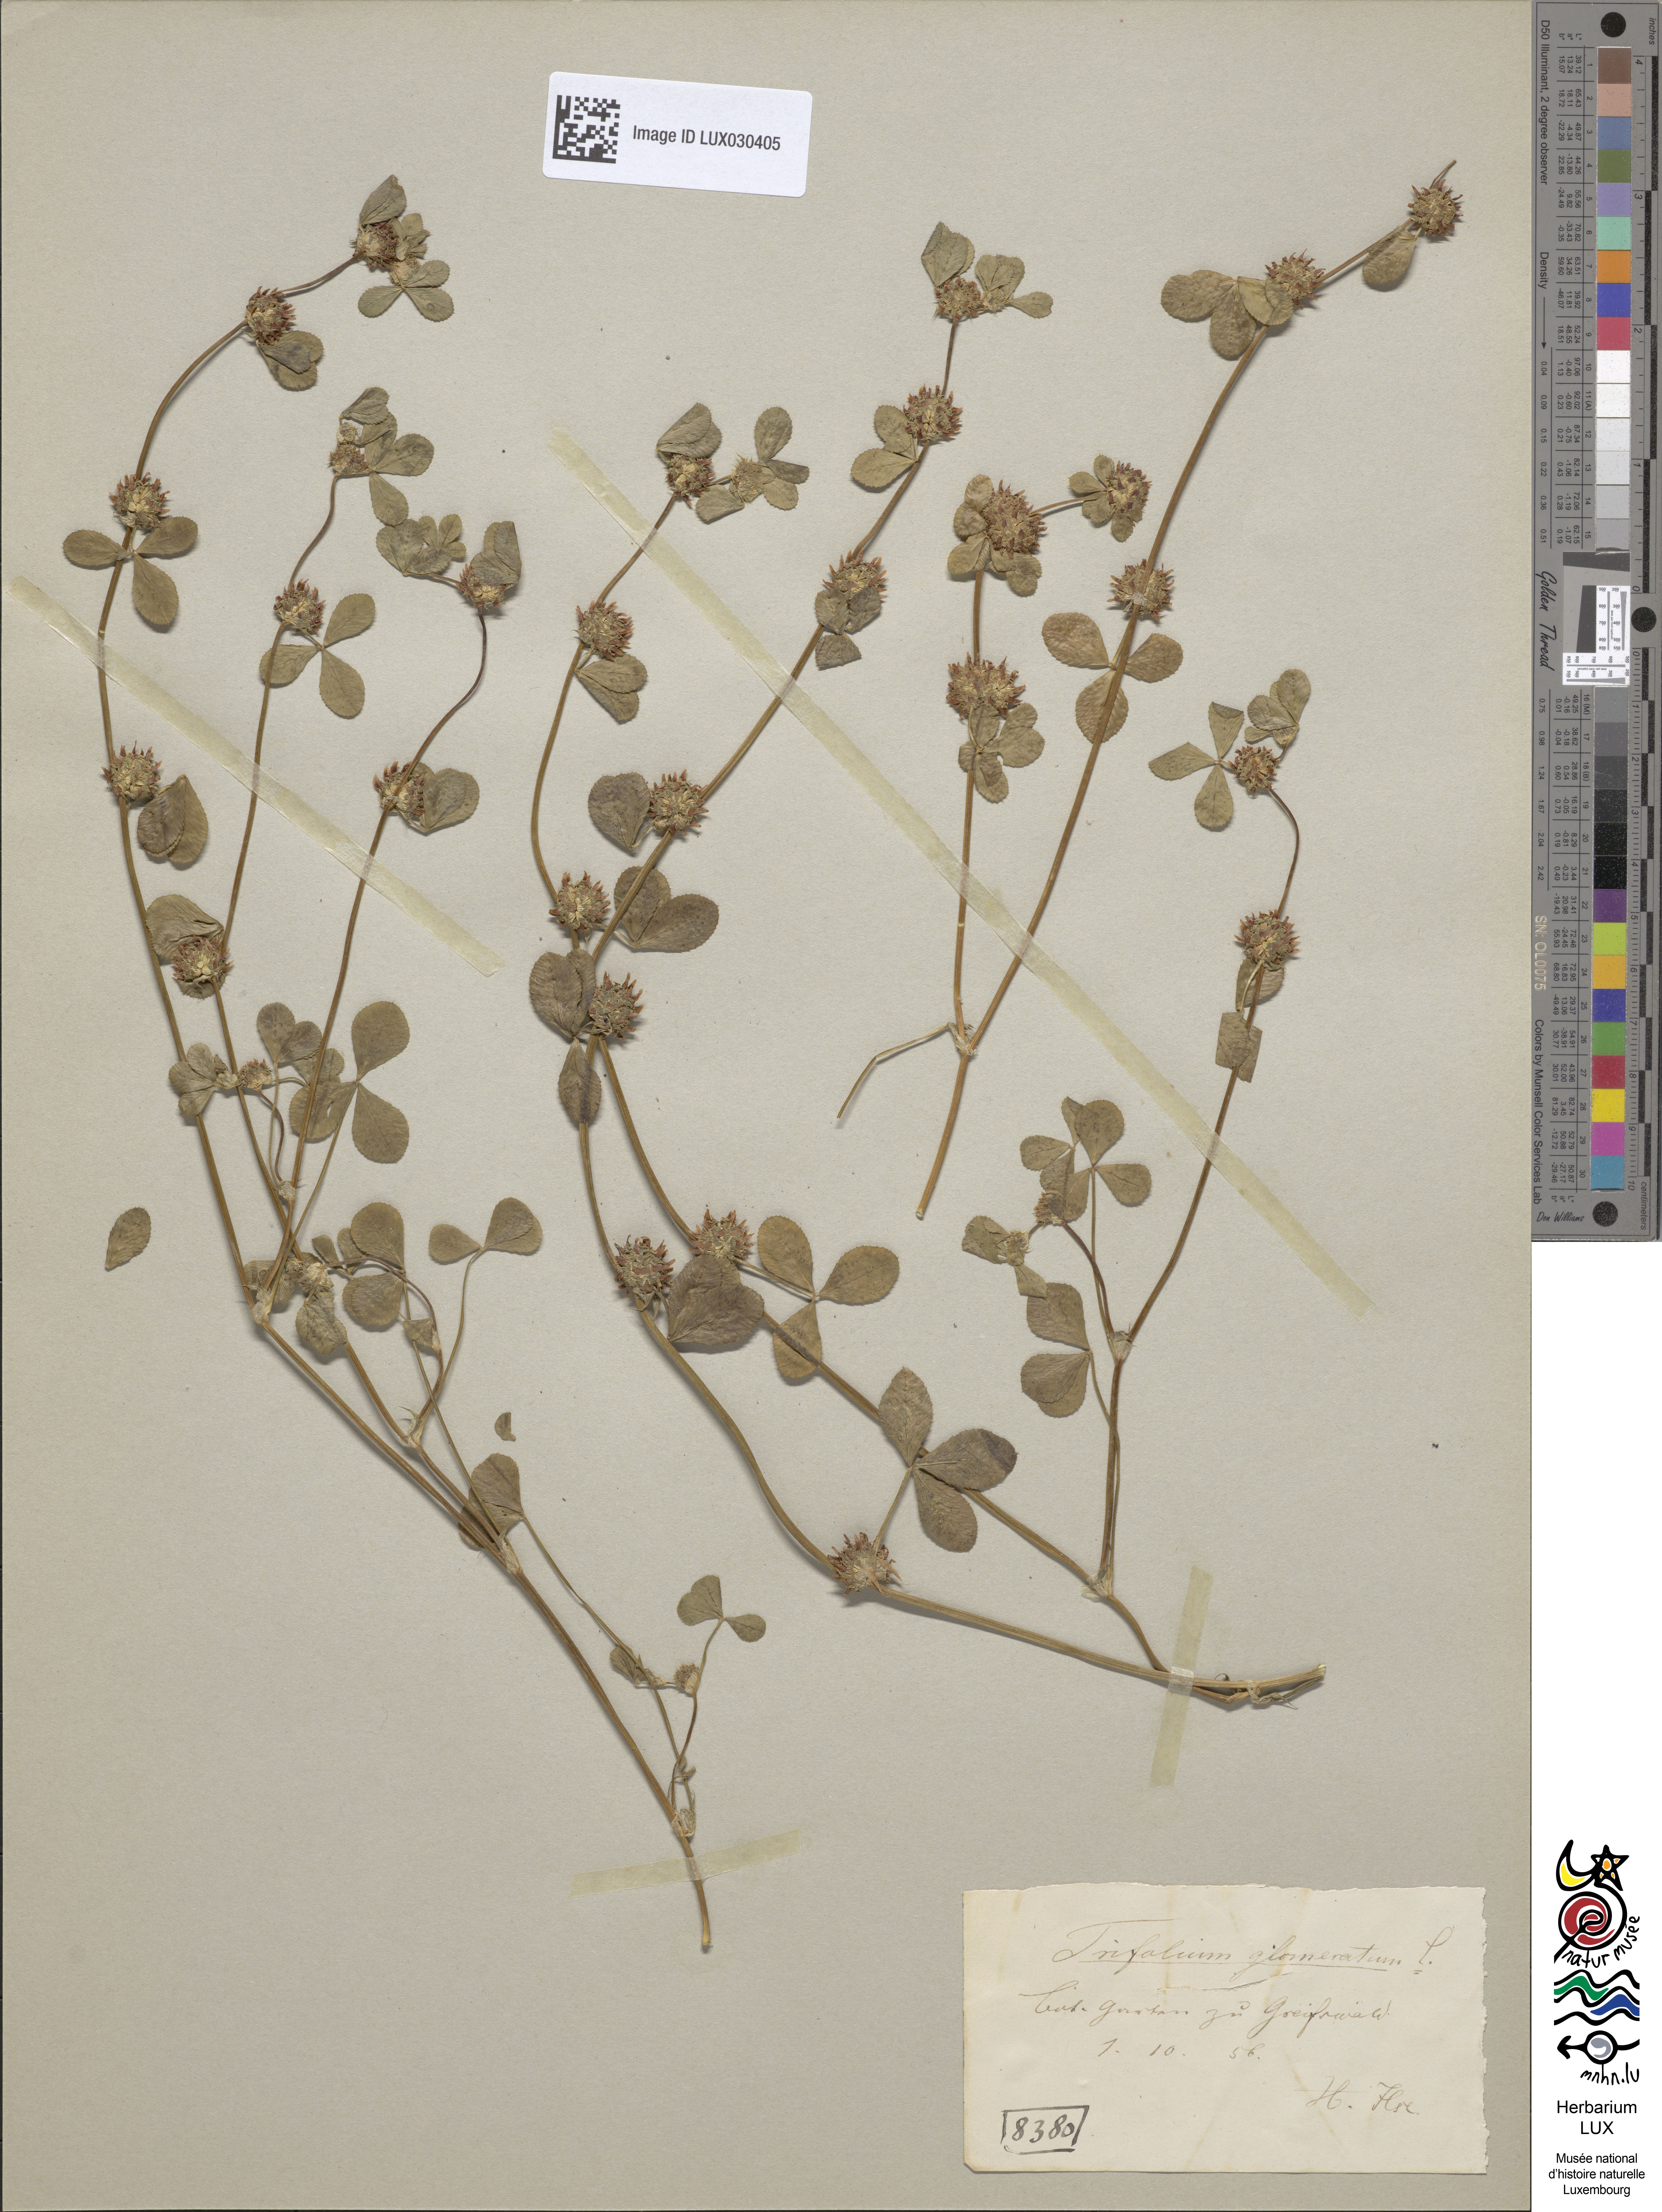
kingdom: Plantae
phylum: Tracheophyta
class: Magnoliopsida
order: Fabales
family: Fabaceae
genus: Trifolium
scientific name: Trifolium glomeratum
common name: Clustered clover
